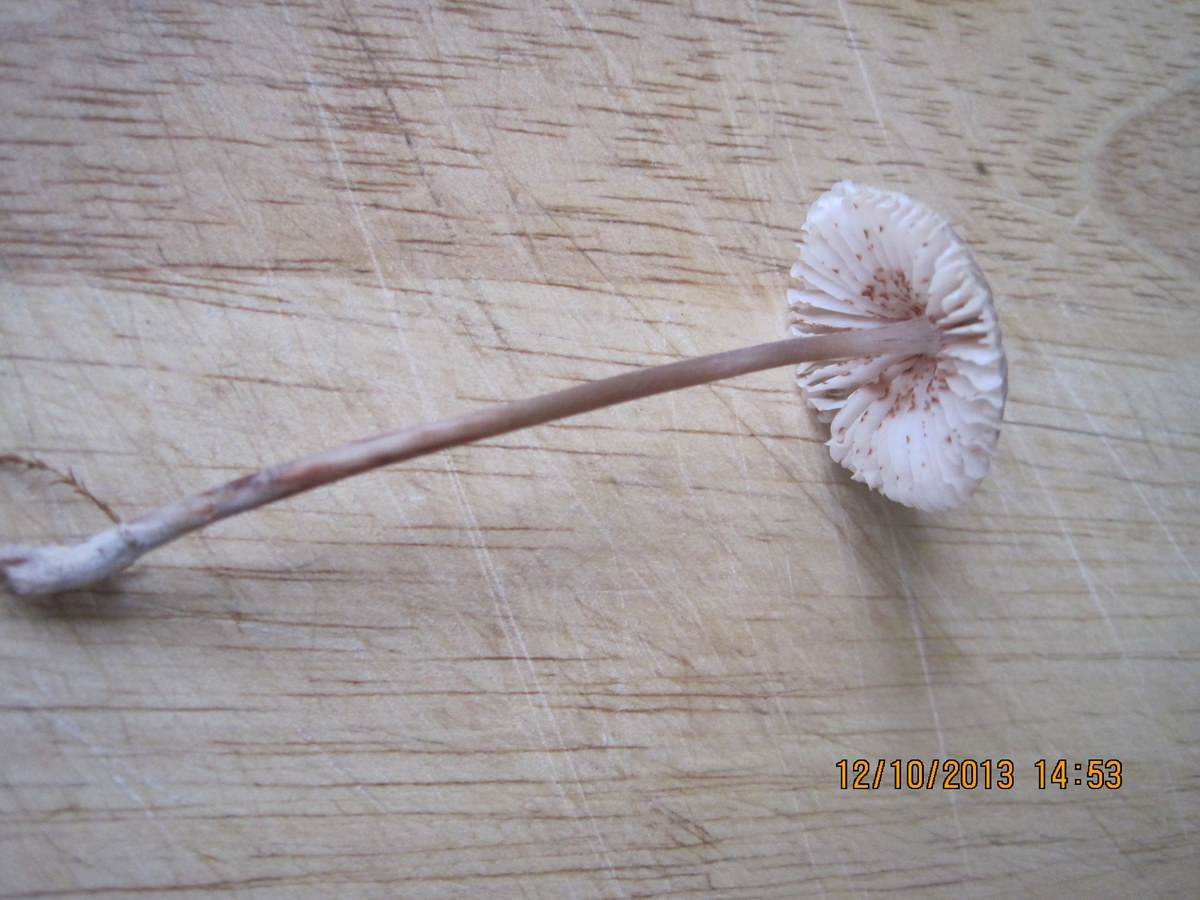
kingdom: Fungi
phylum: Basidiomycota
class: Agaricomycetes
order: Agaricales
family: Mycenaceae
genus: Mycena
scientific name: Mycena zephirus
